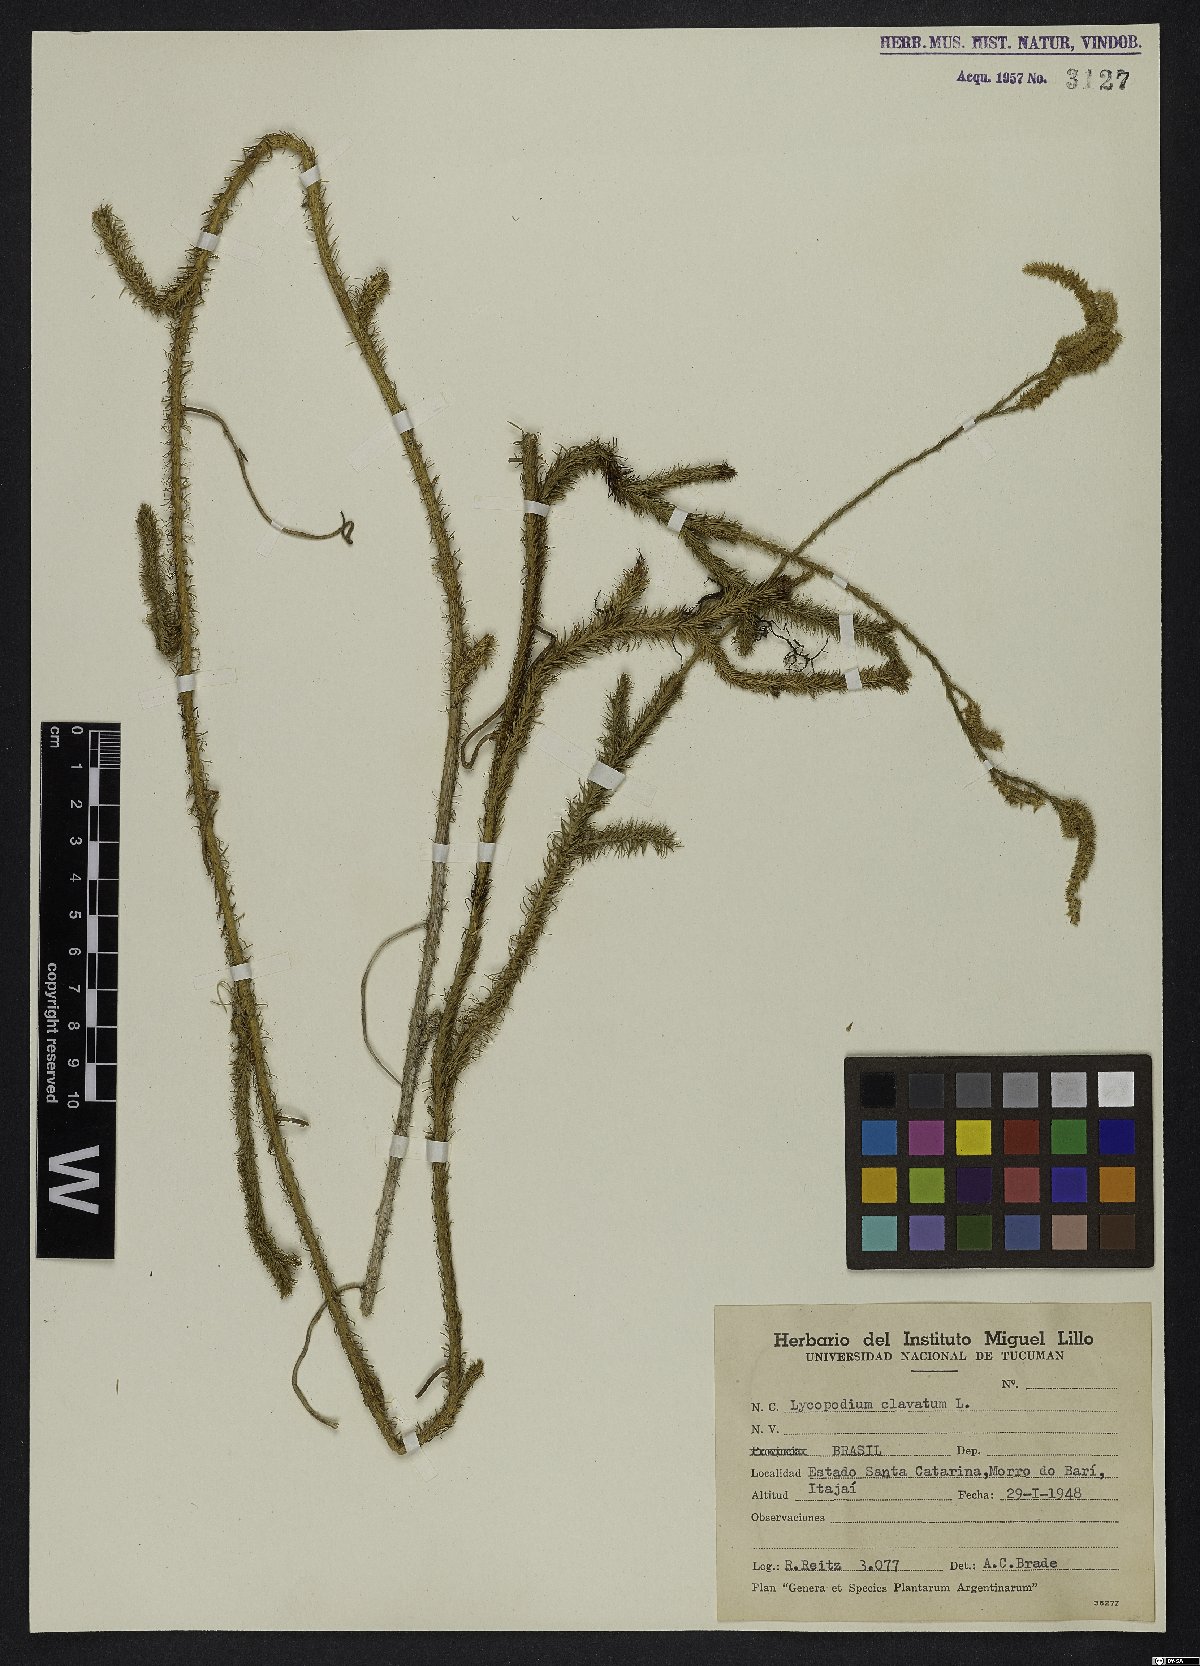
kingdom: Plantae
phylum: Tracheophyta
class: Lycopodiopsida
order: Lycopodiales
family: Lycopodiaceae
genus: Lycopodium
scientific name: Lycopodium clavatum
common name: Stag's-horn clubmoss
